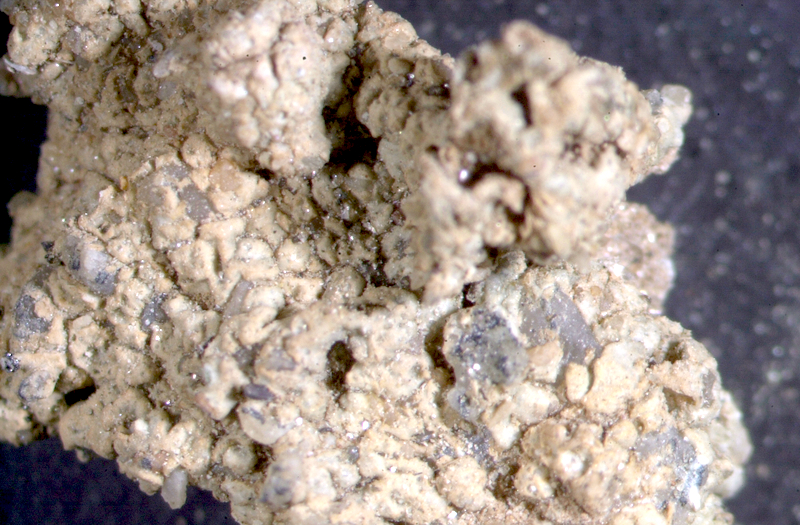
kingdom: Fungi
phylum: Ascomycota
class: Lecanoromycetes
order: Lecanorales
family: Ramalinaceae
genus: Ramalina
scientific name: Ramalina capensis
